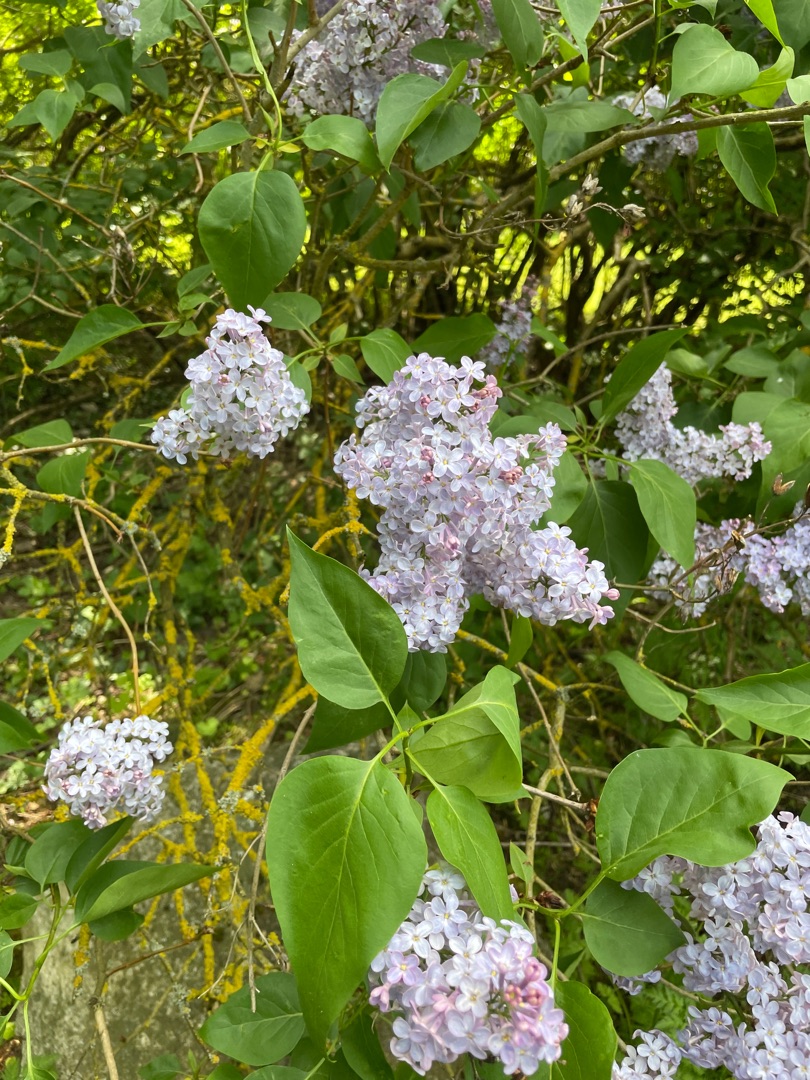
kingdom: Plantae
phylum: Tracheophyta
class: Magnoliopsida
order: Lamiales
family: Oleaceae
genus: Syringa
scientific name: Syringa vulgaris
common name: Syren
